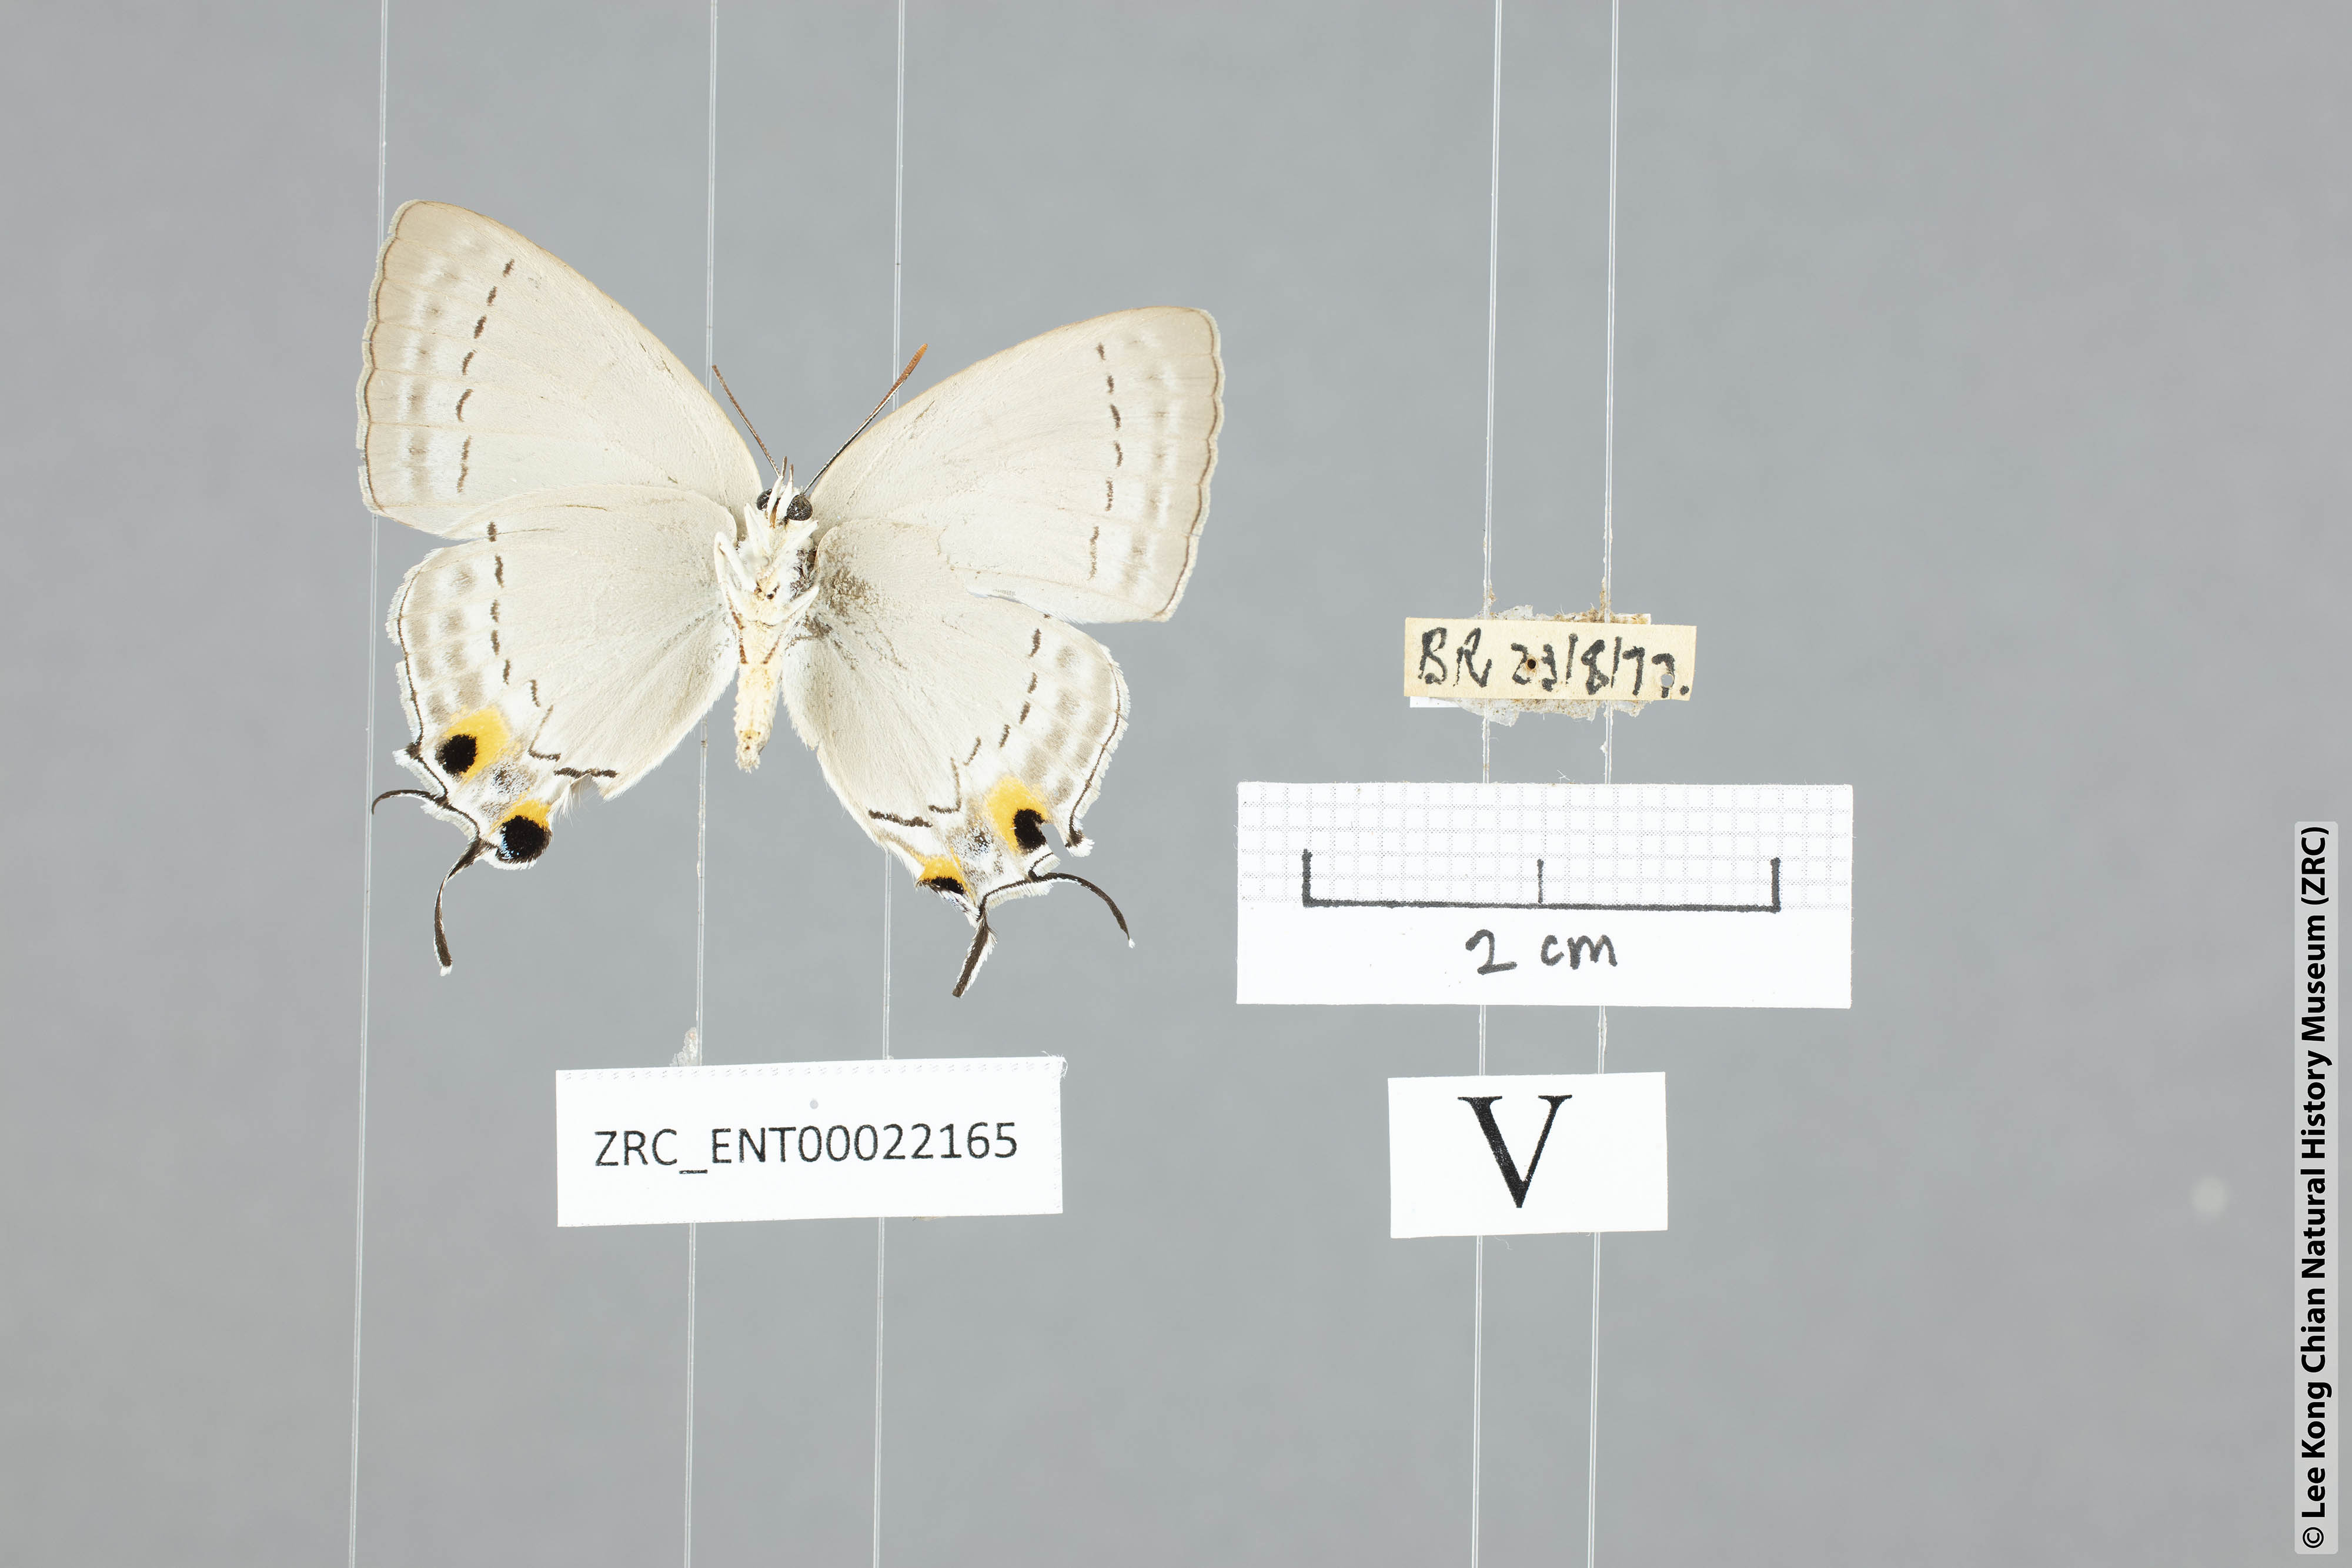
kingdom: Animalia
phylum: Arthropoda
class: Insecta
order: Lepidoptera
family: Lycaenidae
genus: Tajuria
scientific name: Tajuria cippus
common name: Peacock royal
